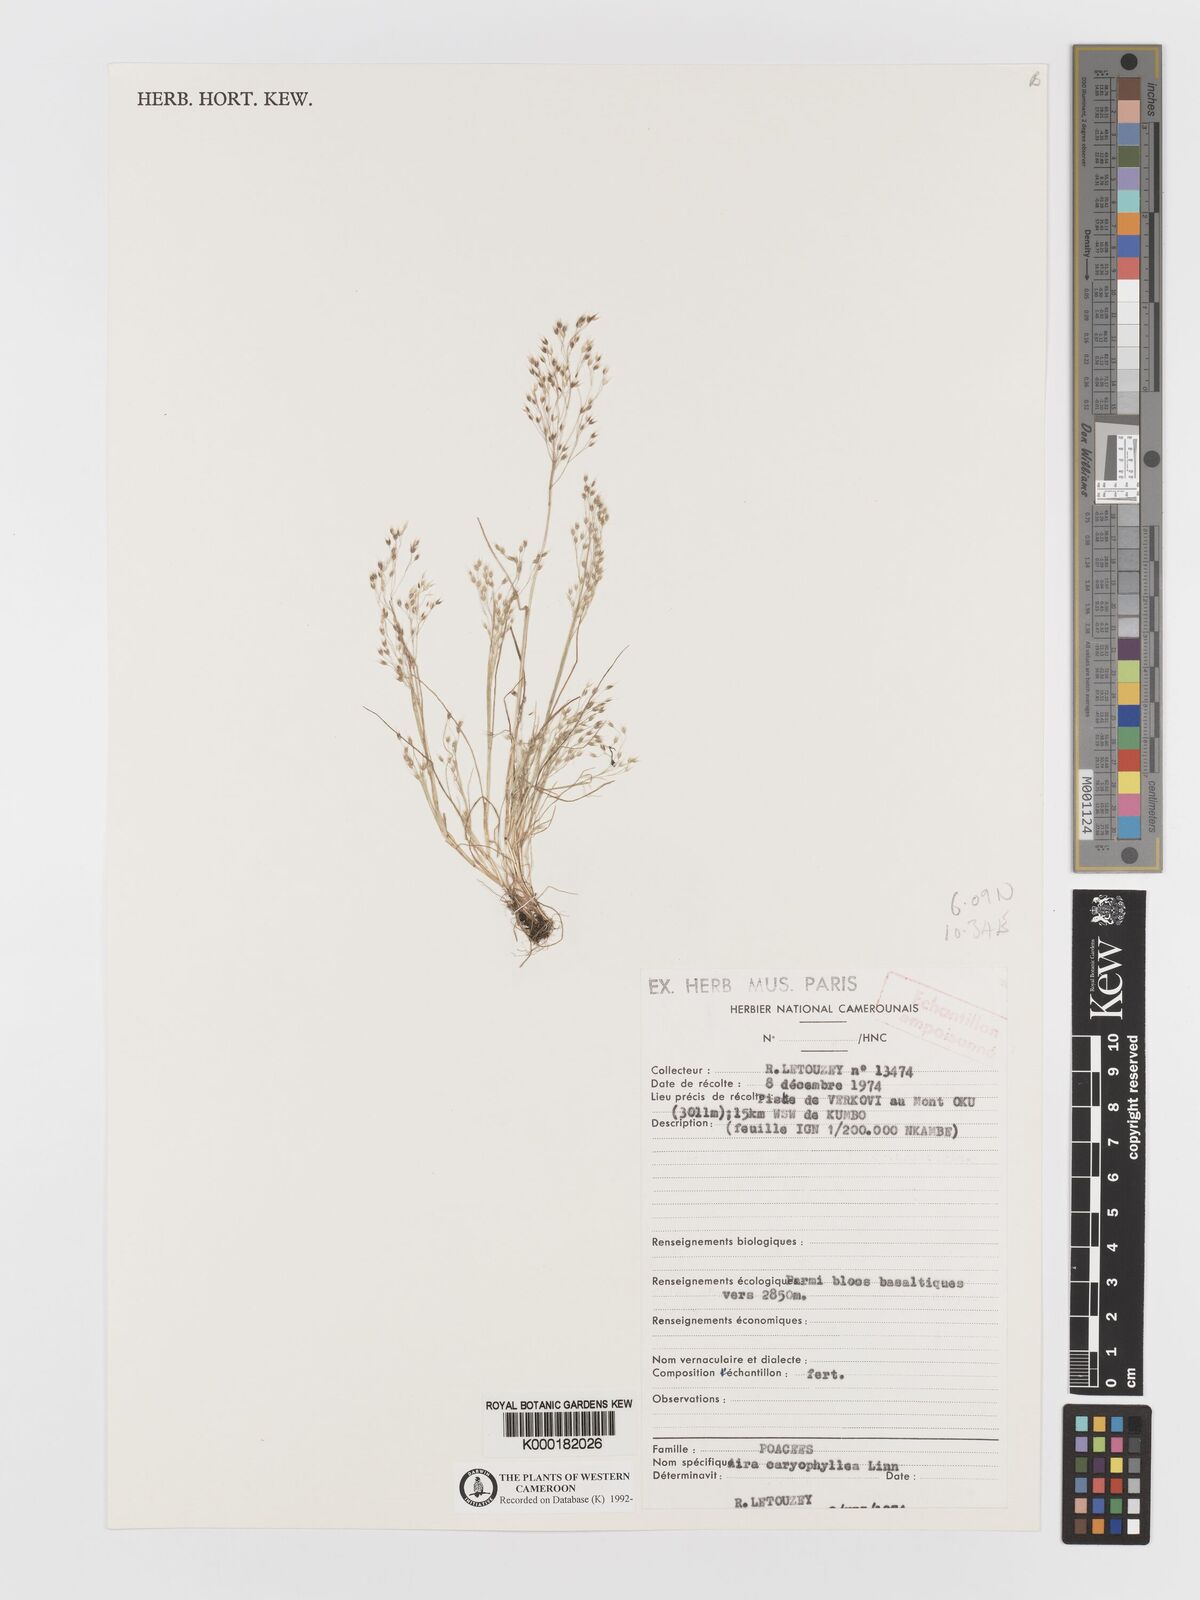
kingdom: Plantae
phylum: Tracheophyta
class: Liliopsida
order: Poales
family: Poaceae
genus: Aira
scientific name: Aira caryophyllea
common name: Silver hairgrass
